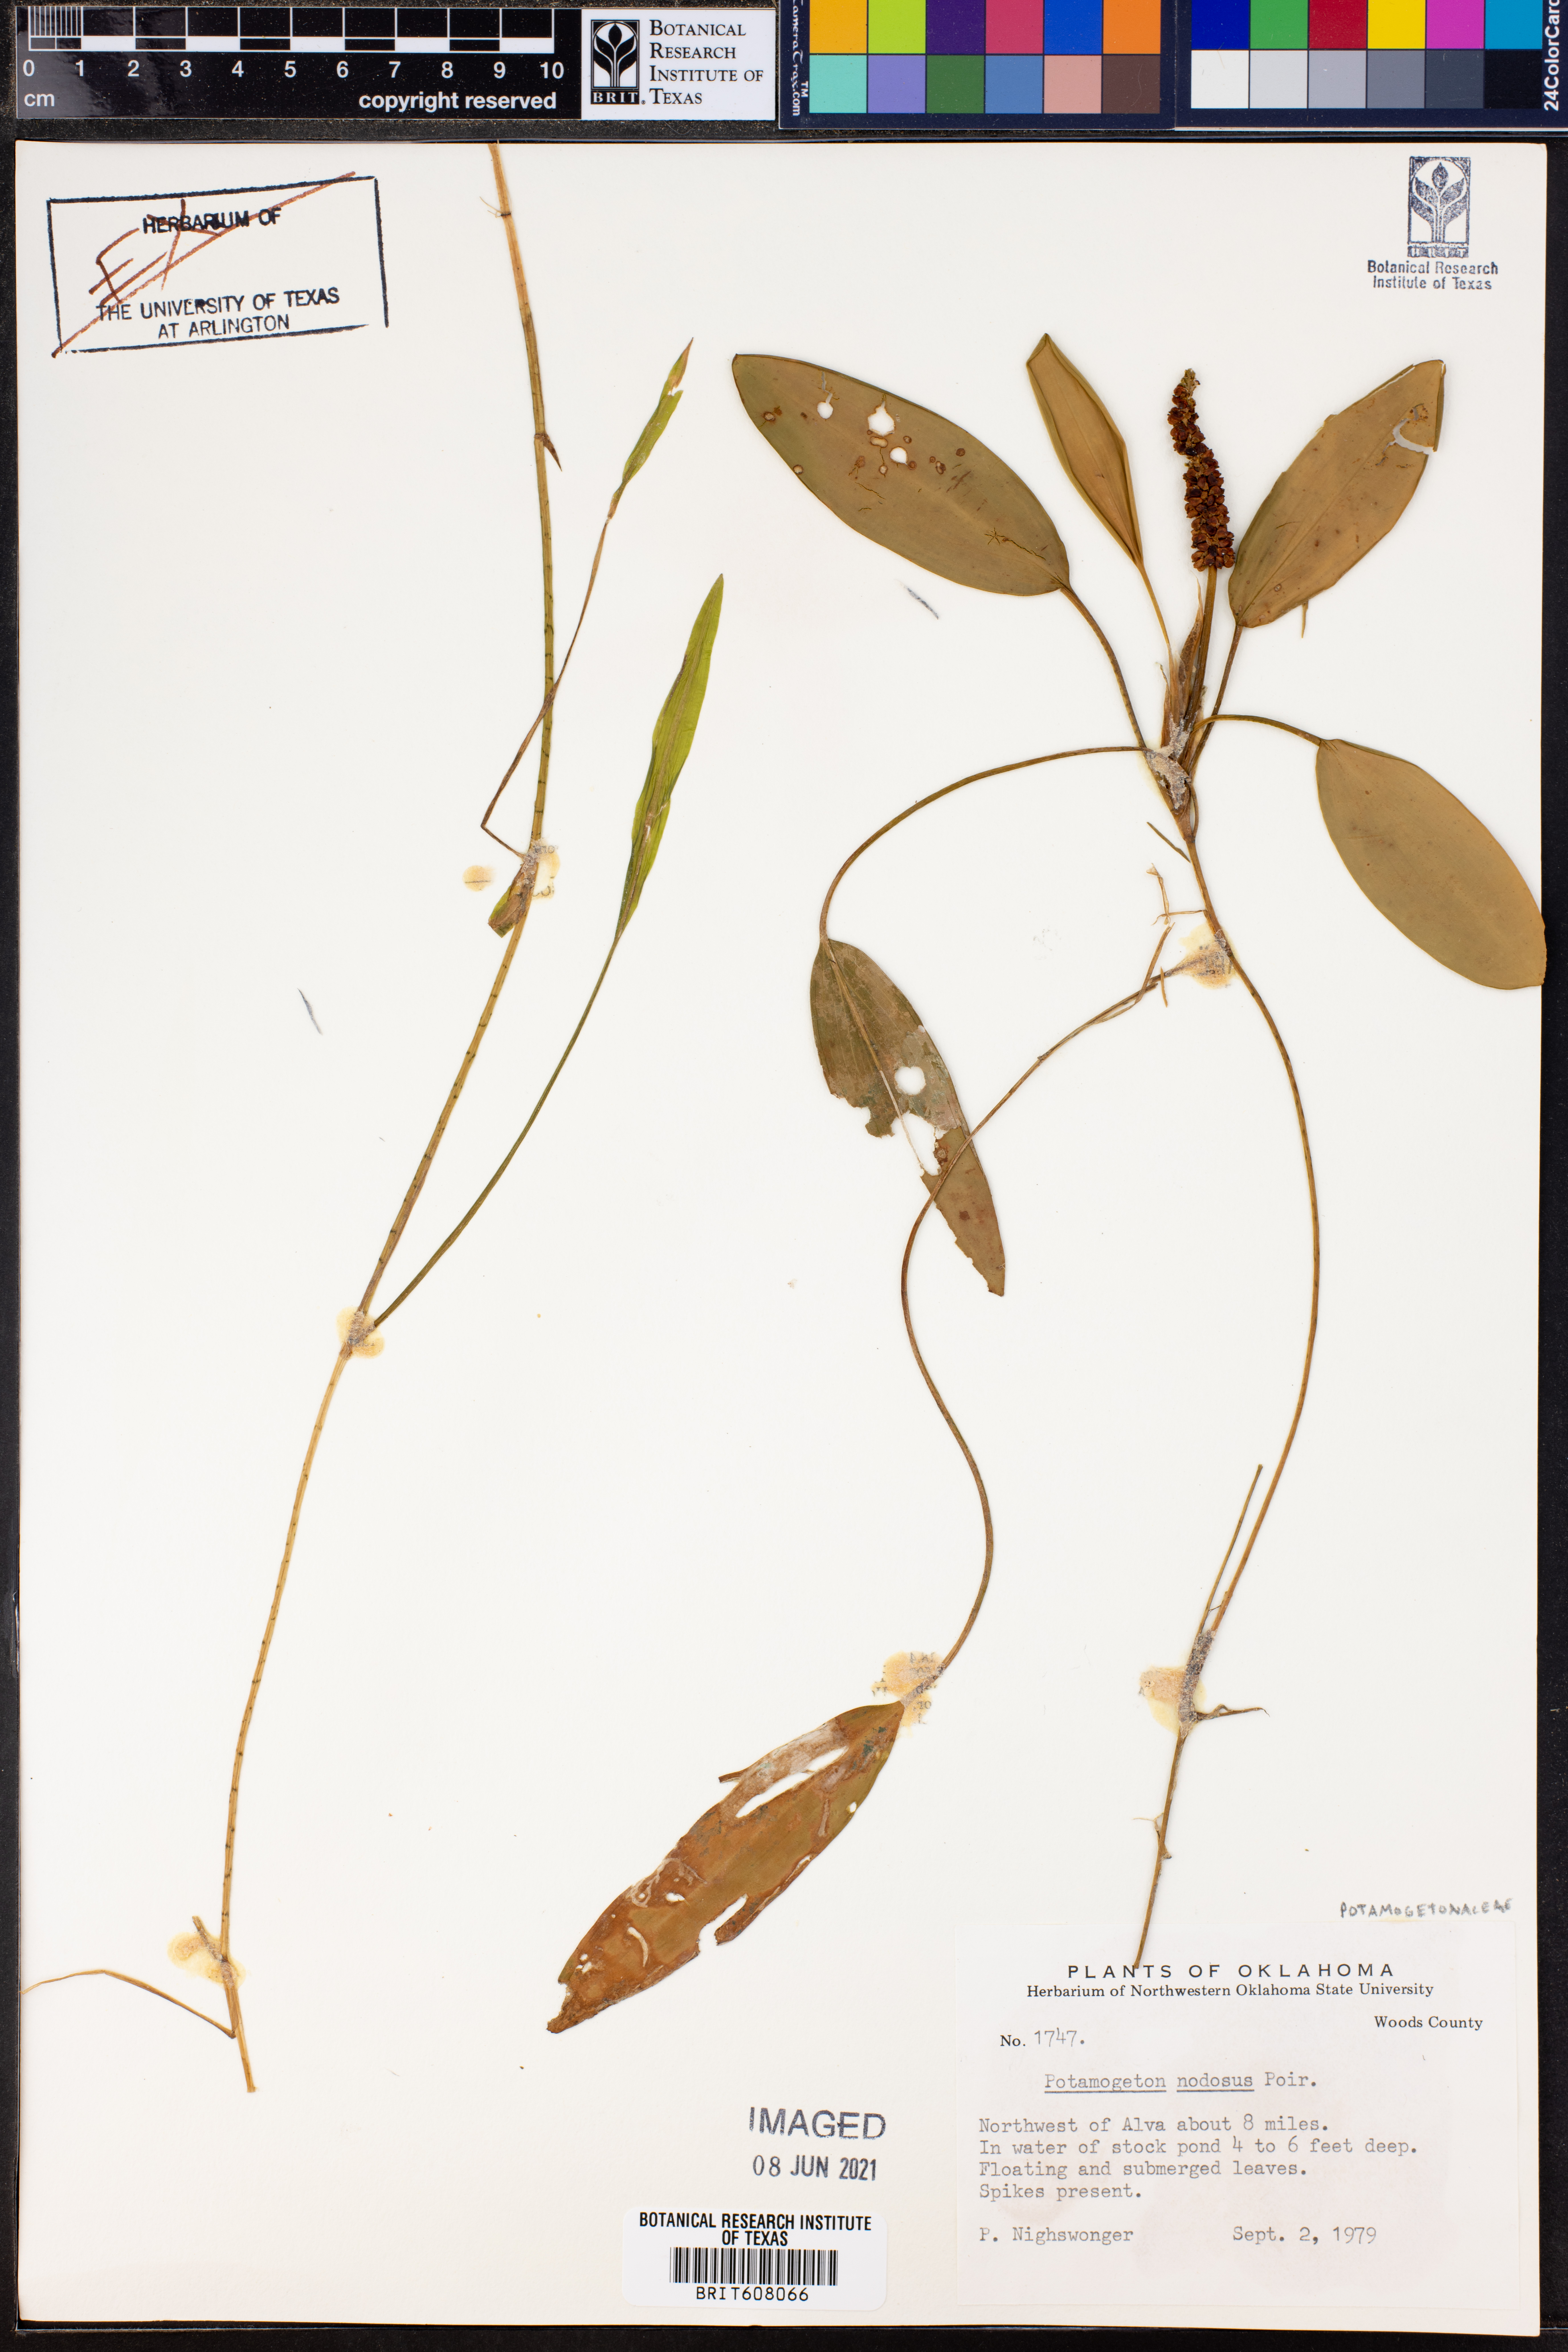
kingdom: Plantae
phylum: Tracheophyta
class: Liliopsida
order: Alismatales
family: Potamogetonaceae
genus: Potamogeton
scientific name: Potamogeton nodosus
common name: Loddon pondweed
